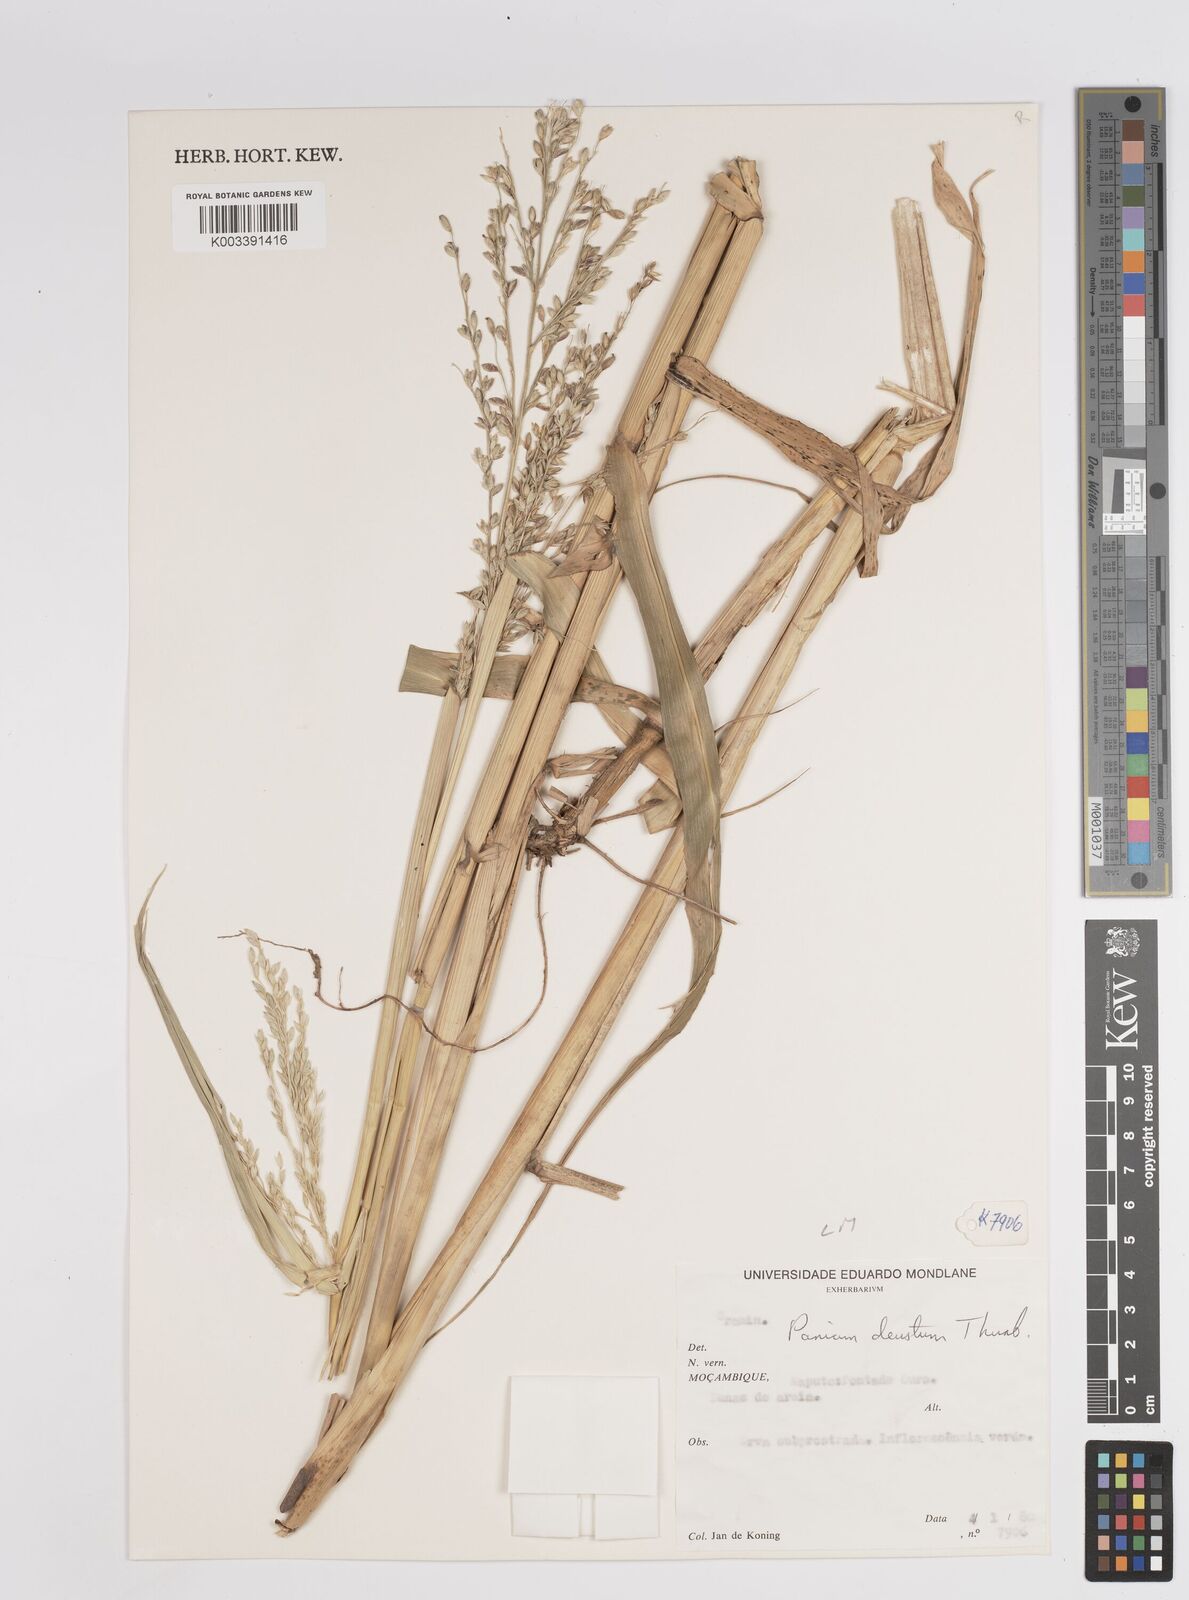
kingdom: Plantae
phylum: Tracheophyta
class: Liliopsida
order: Poales
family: Poaceae
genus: Panicum
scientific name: Panicum deustum
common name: Reed panicum
